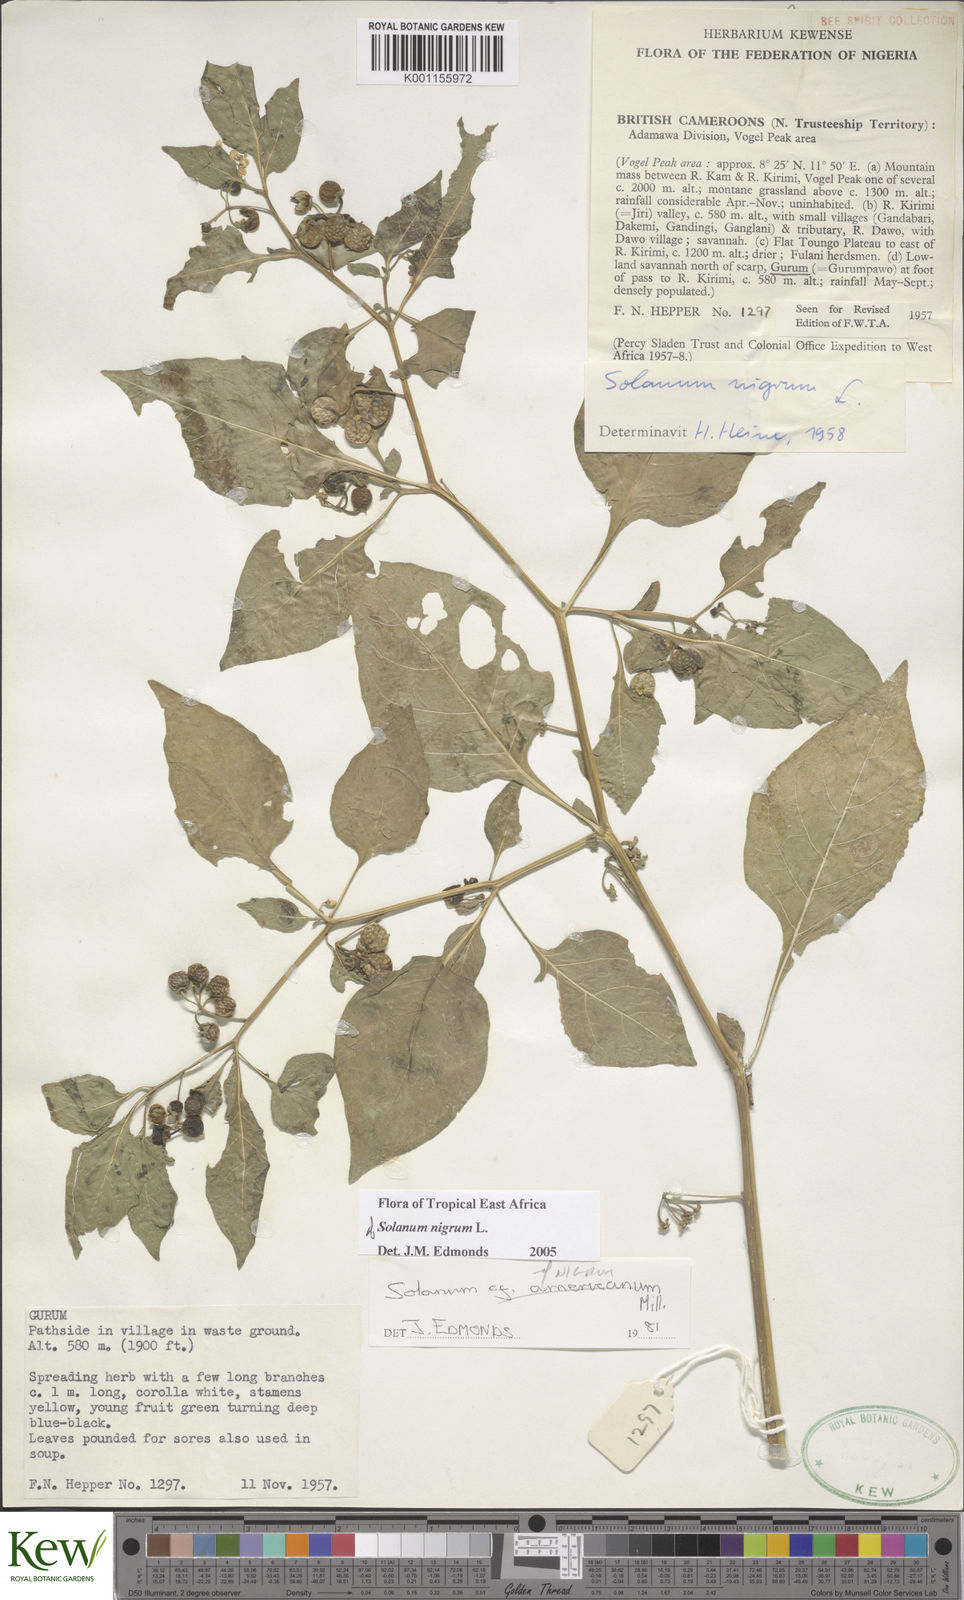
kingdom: Plantae
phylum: Tracheophyta
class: Magnoliopsida
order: Solanales
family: Solanaceae
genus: Solanum
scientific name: Solanum americanum
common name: American black nightshade
